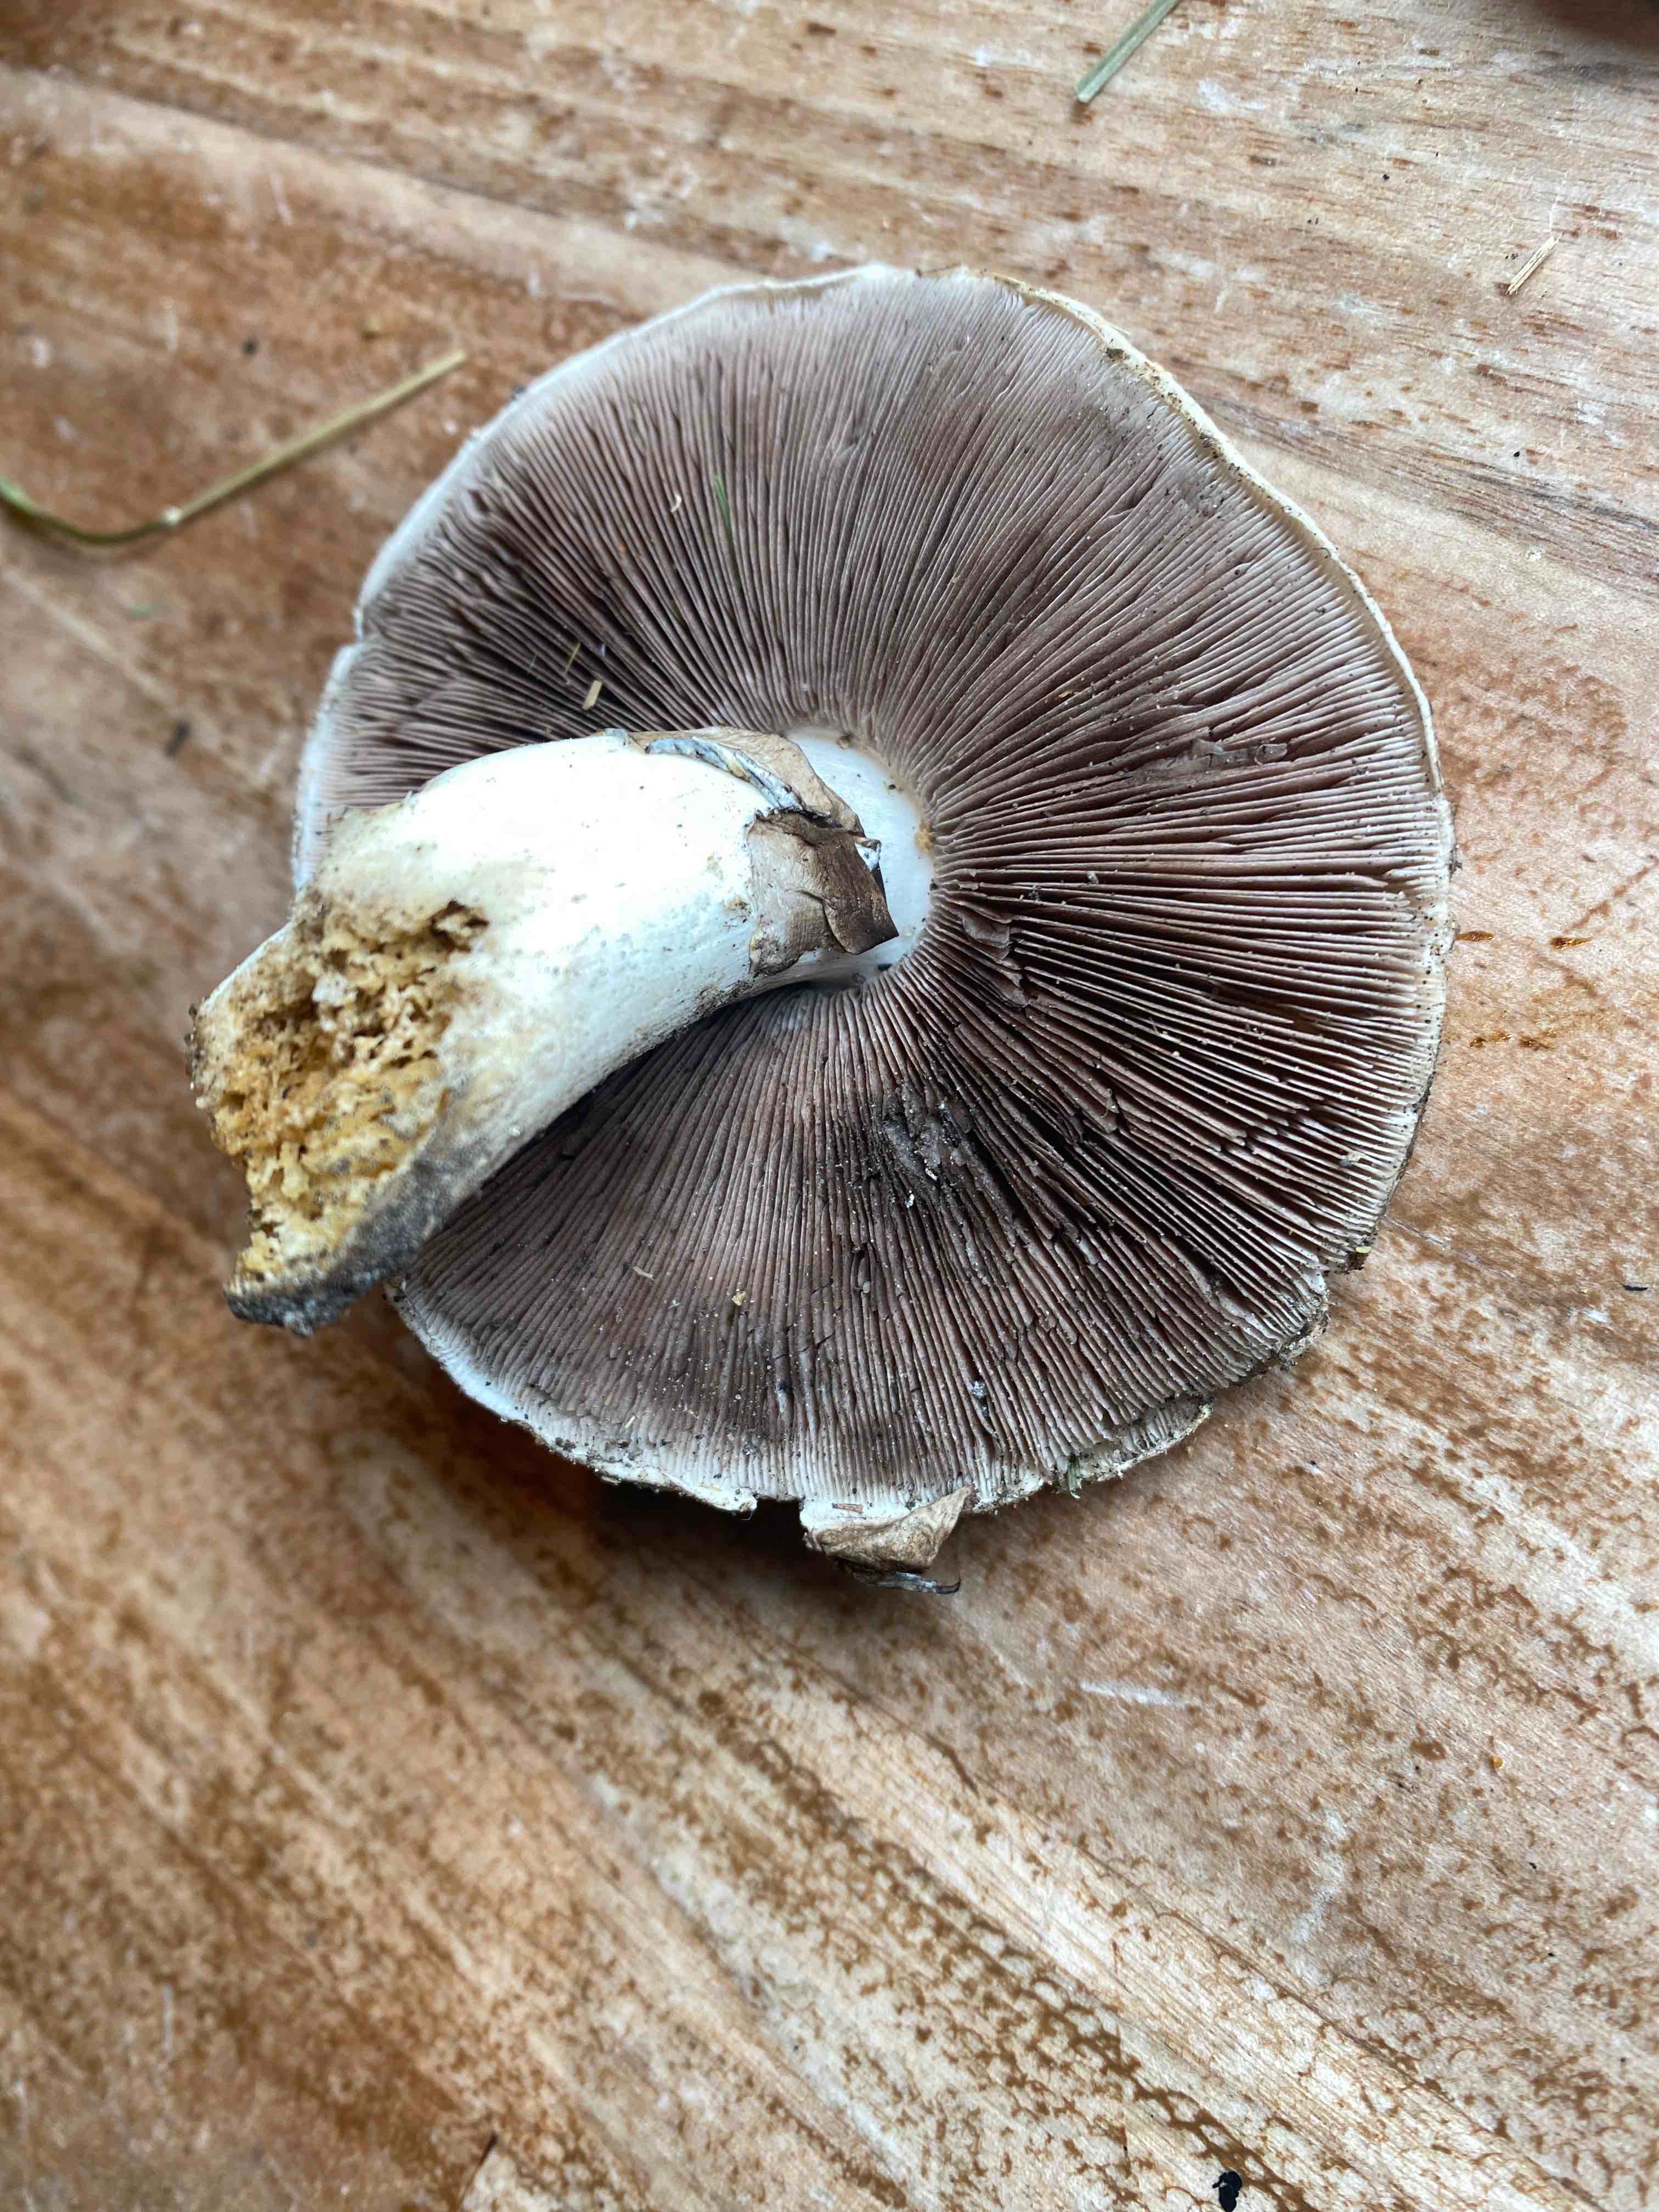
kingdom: Fungi
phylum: Basidiomycota
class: Agaricomycetes
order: Agaricales
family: Agaricaceae
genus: Agaricus
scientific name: Agaricus
